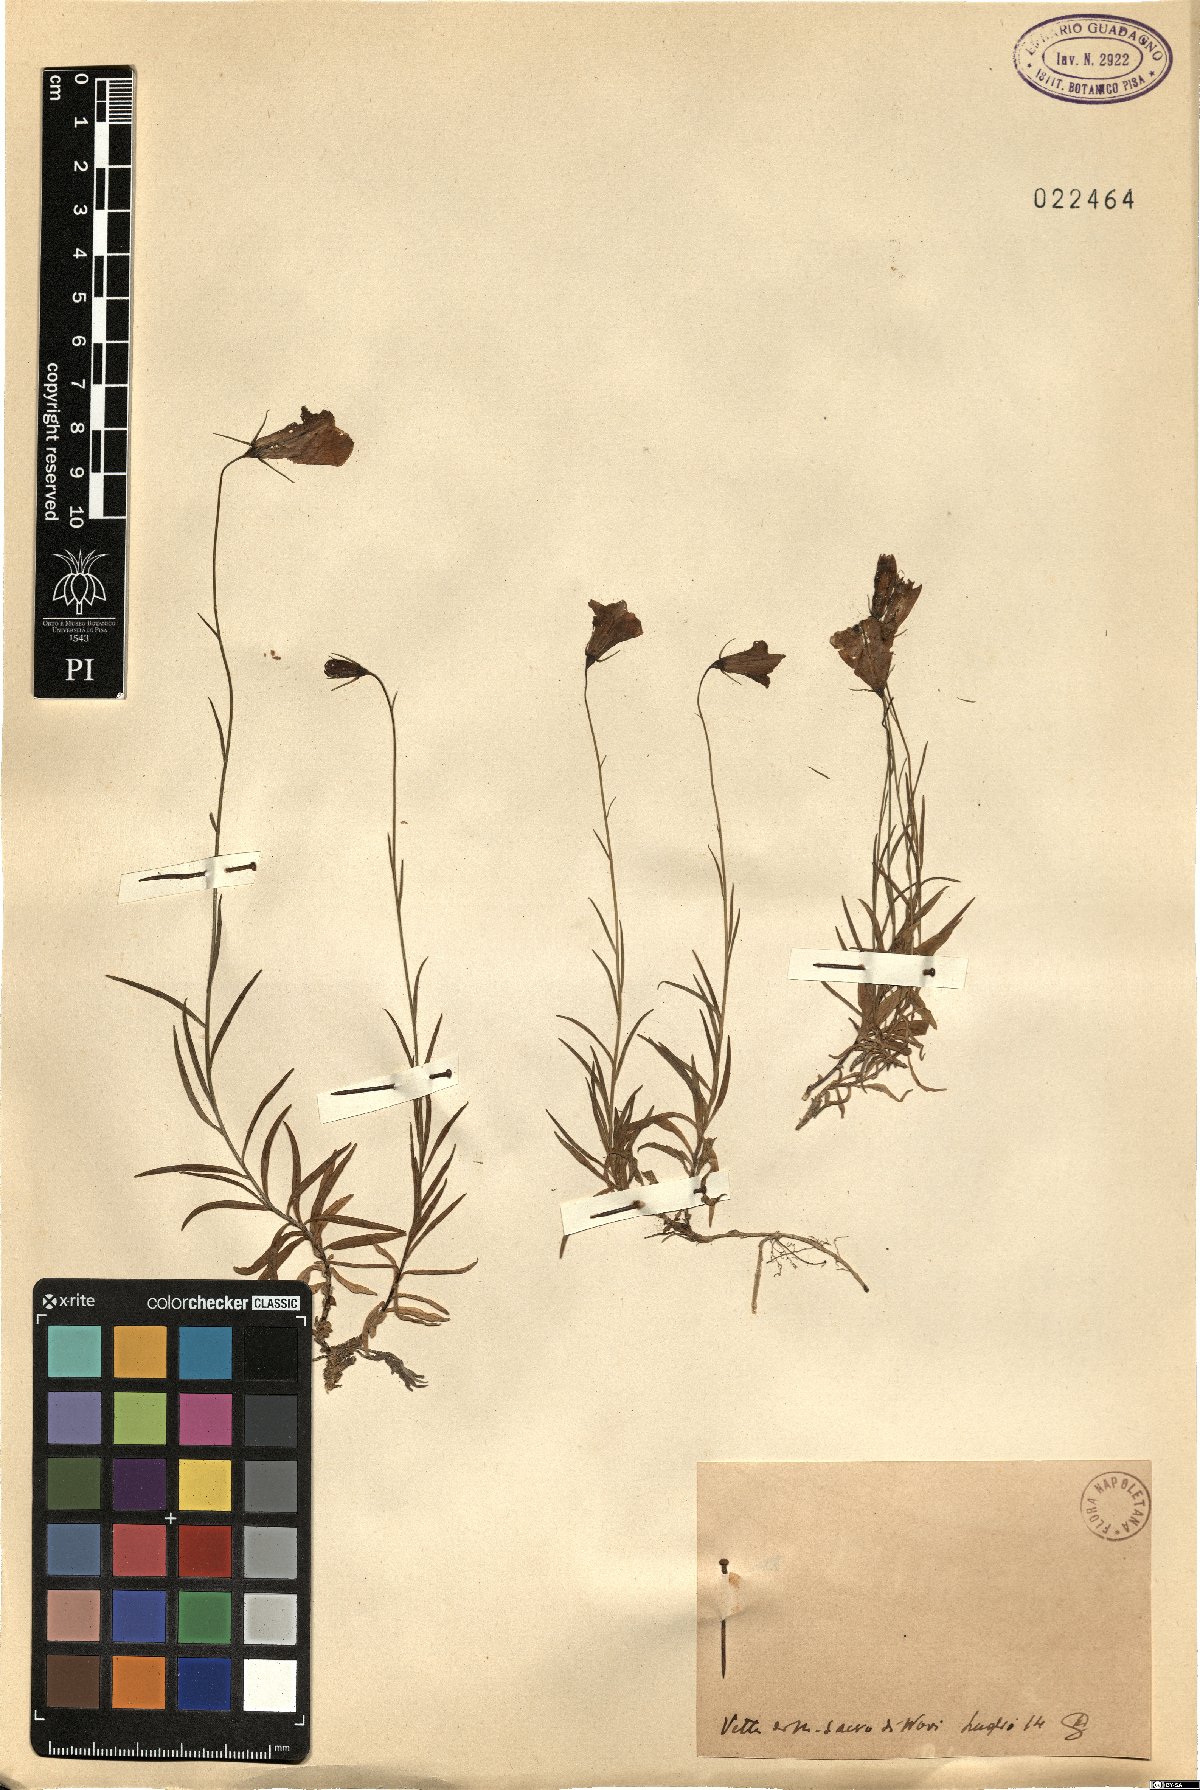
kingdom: Plantae
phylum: Tracheophyta
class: Magnoliopsida
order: Asterales
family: Campanulaceae
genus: Campanula
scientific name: Campanula
